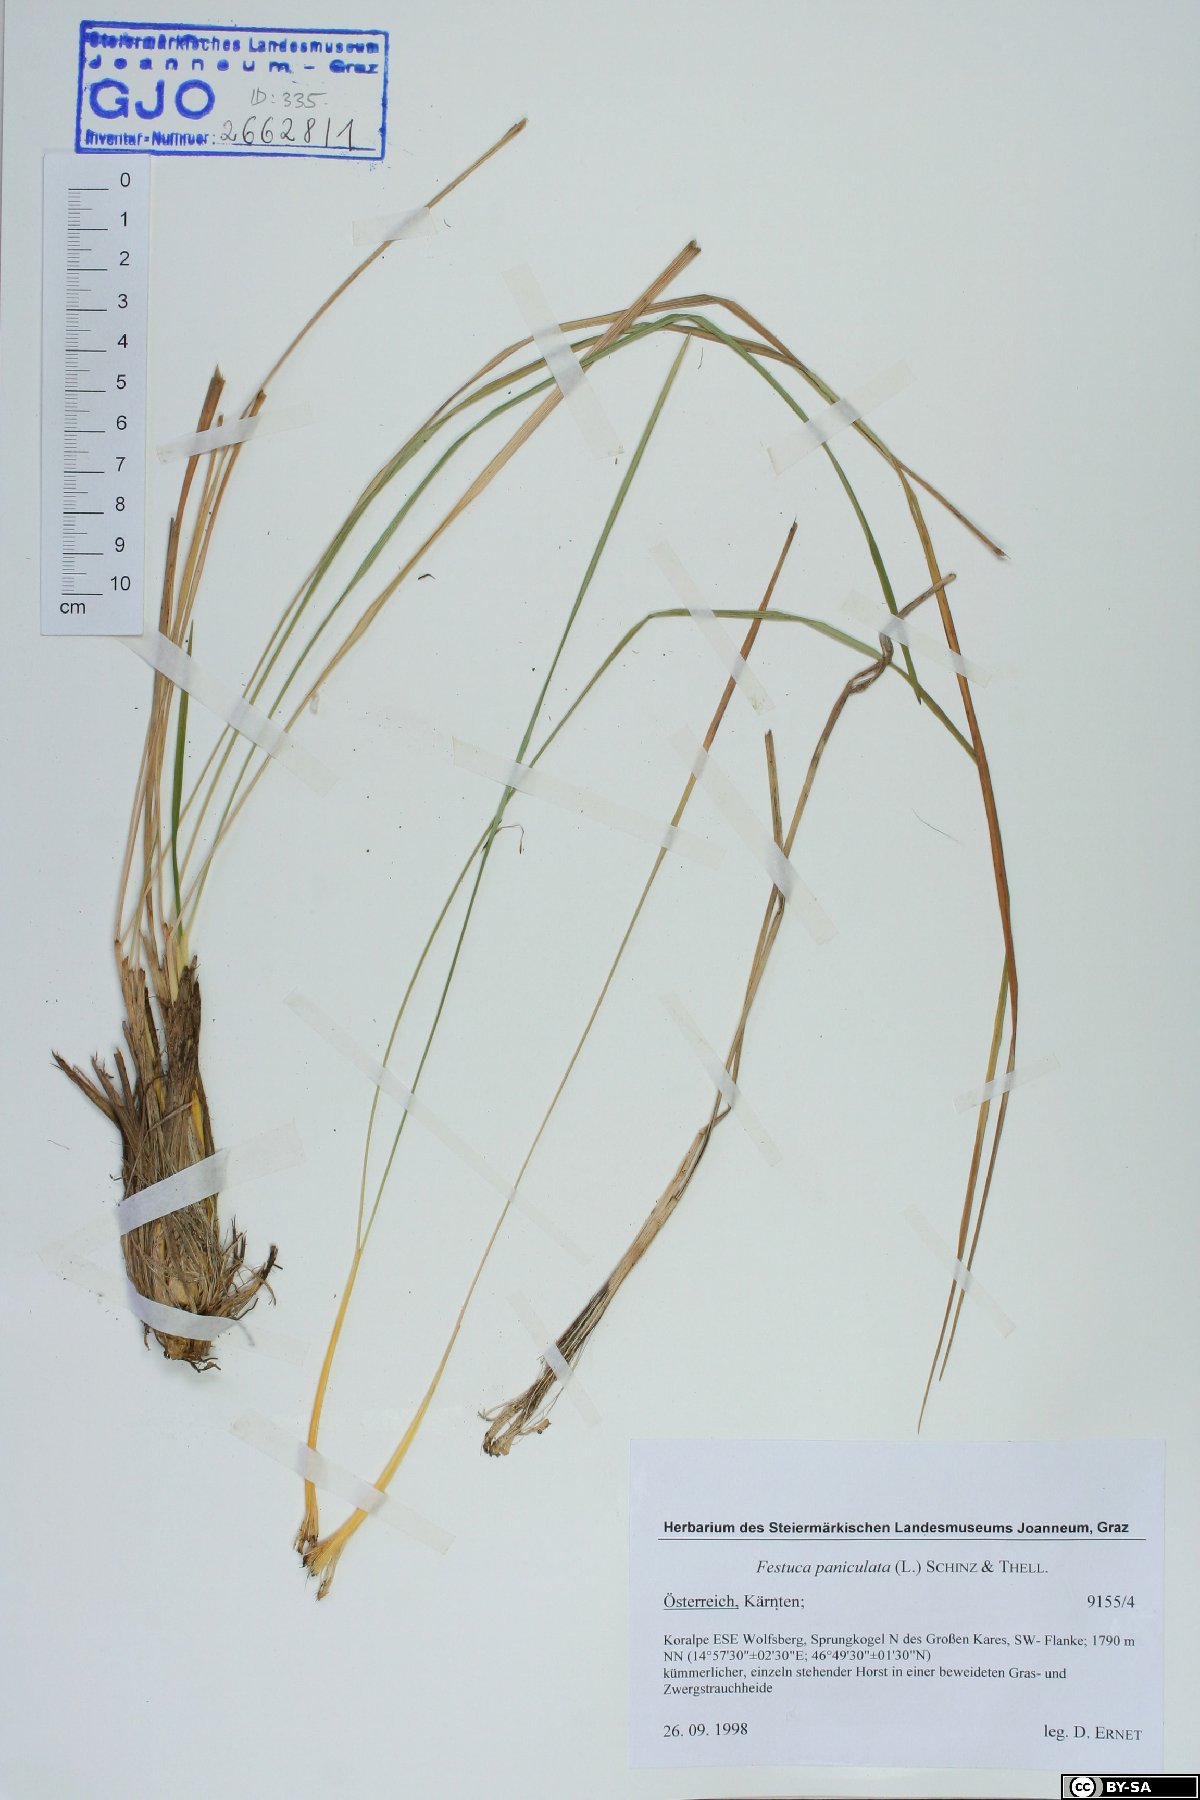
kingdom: Plantae
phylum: Tracheophyta
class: Liliopsida
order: Poales
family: Poaceae
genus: Patzkea
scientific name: Patzkea paniculata
